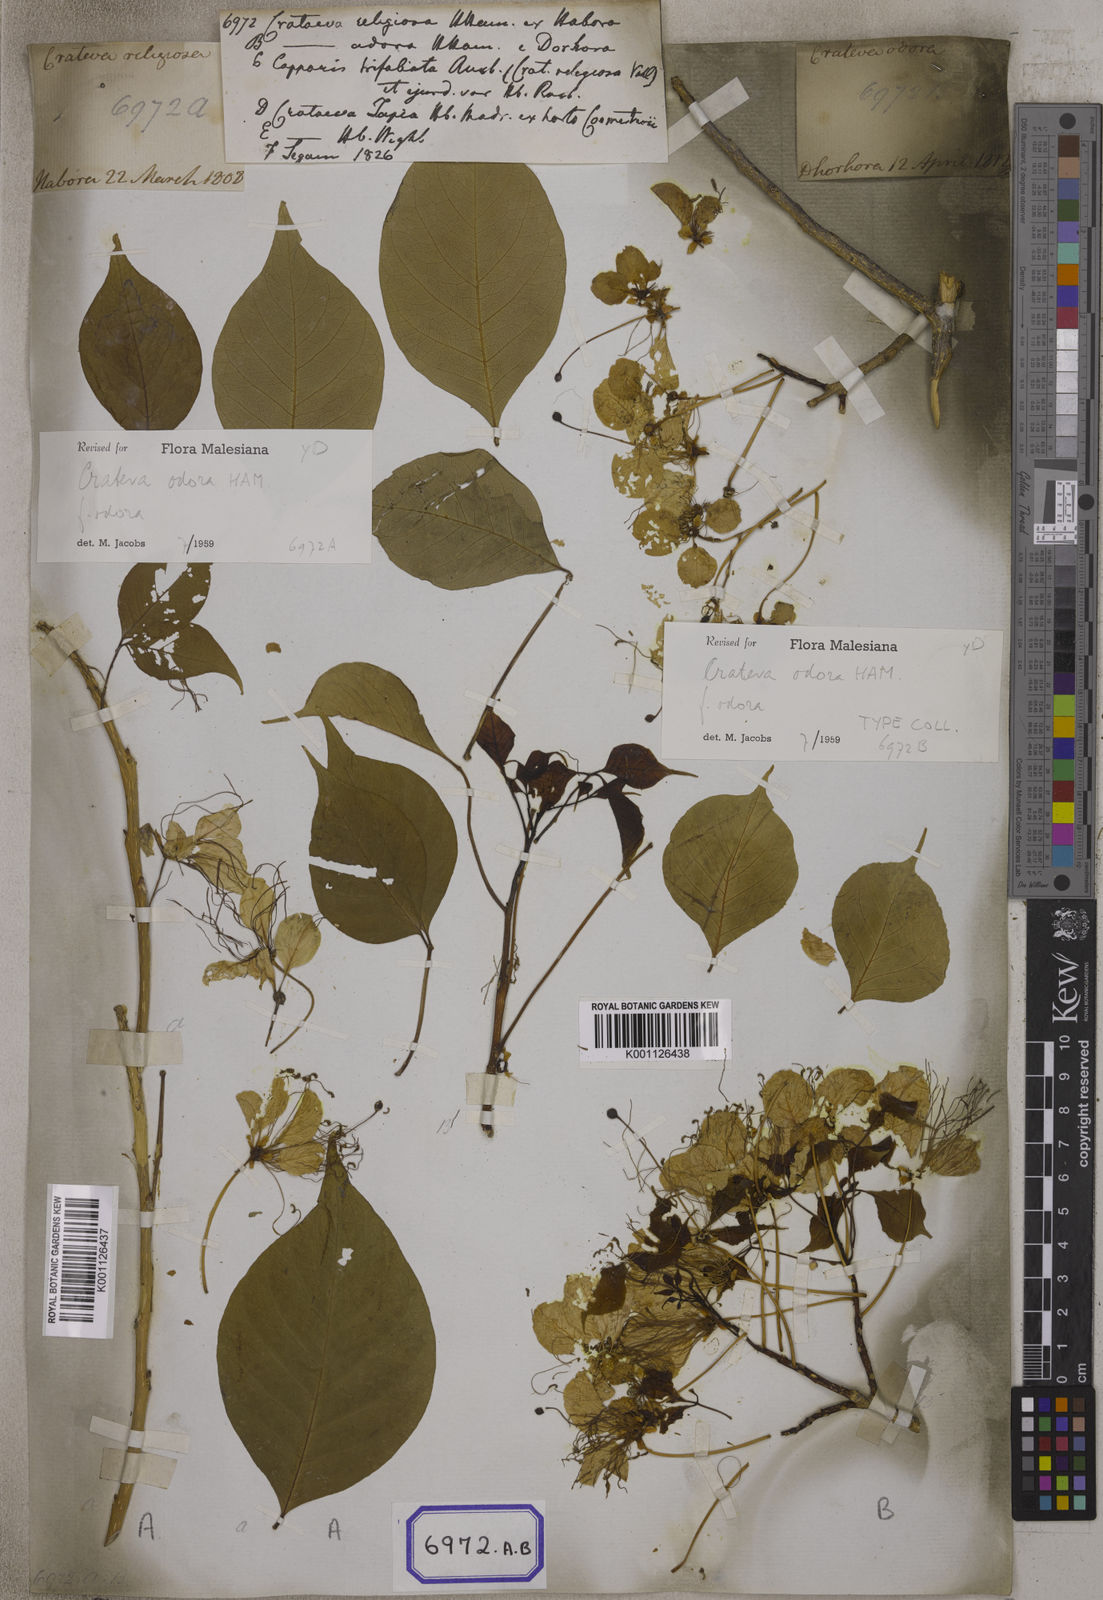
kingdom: Plantae
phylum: Tracheophyta
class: Magnoliopsida
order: Brassicales
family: Capparaceae
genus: Crateva
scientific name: Crateva religiosa
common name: March dalur
